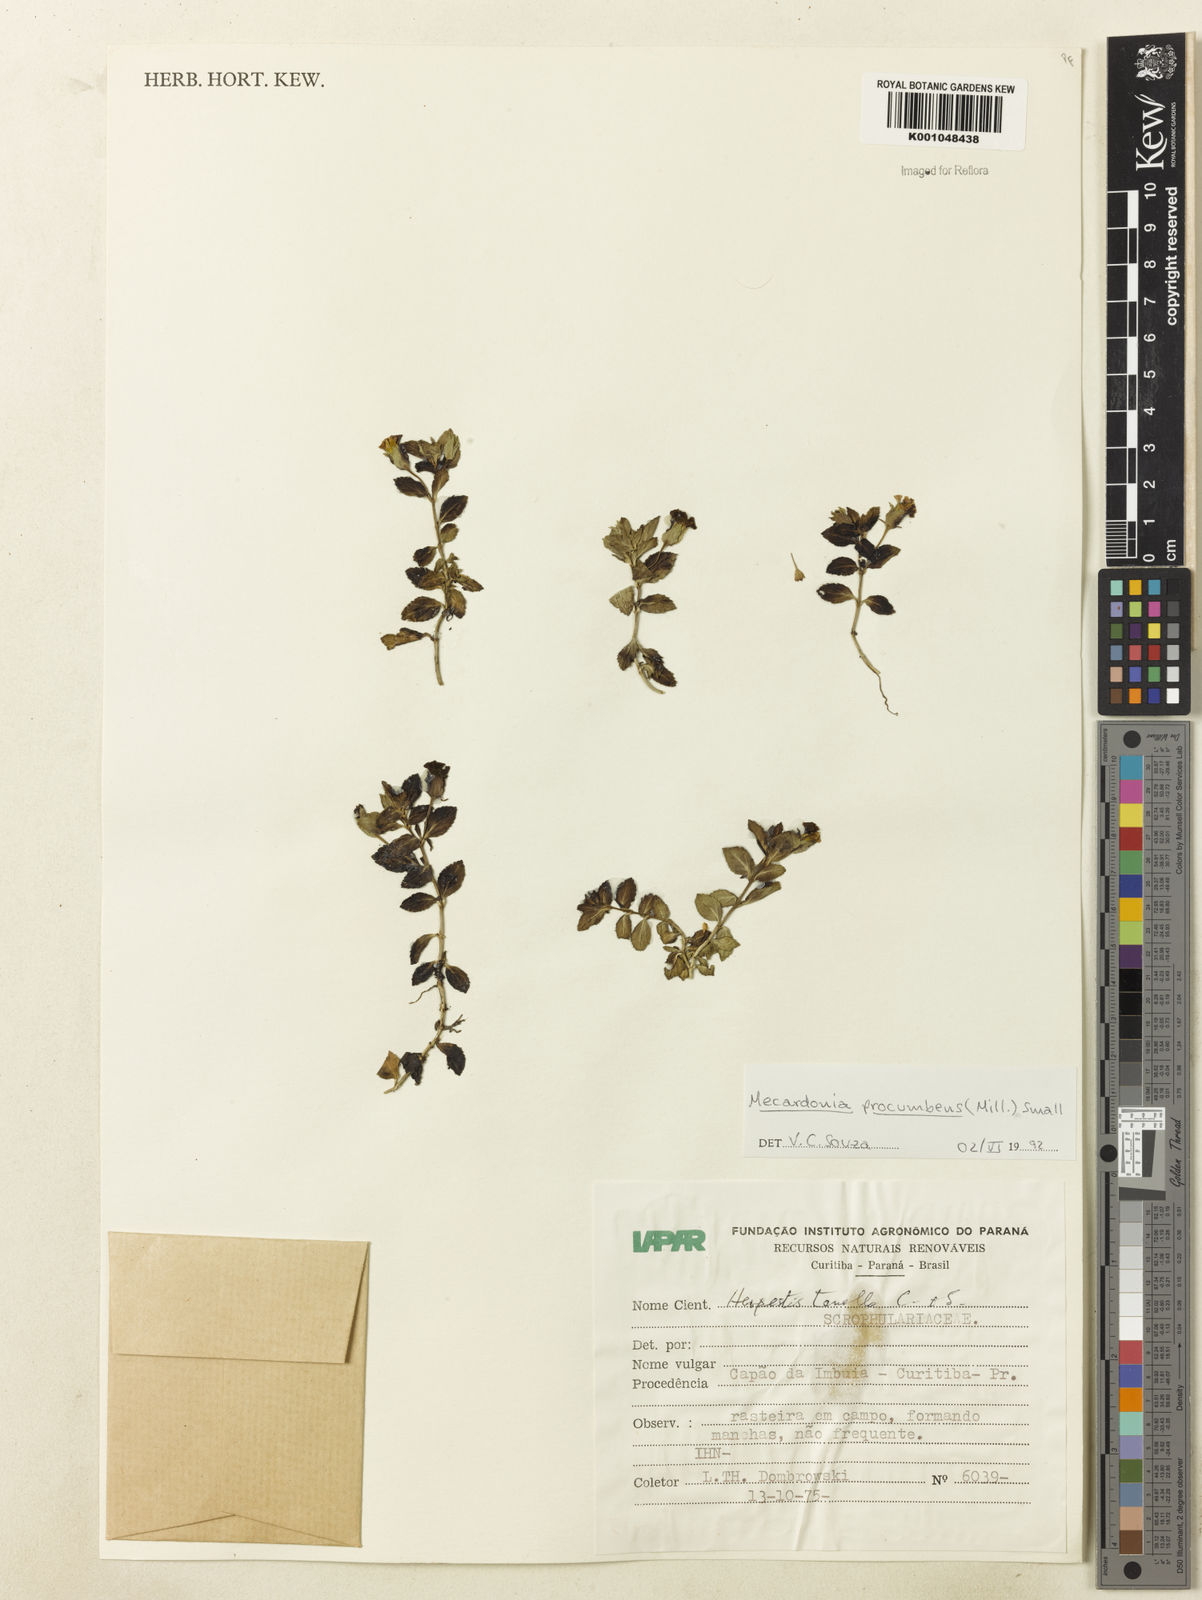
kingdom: Plantae
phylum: Tracheophyta
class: Magnoliopsida
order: Lamiales
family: Plantaginaceae
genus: Mecardonia
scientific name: Mecardonia procumbens
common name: Baby jump-up
